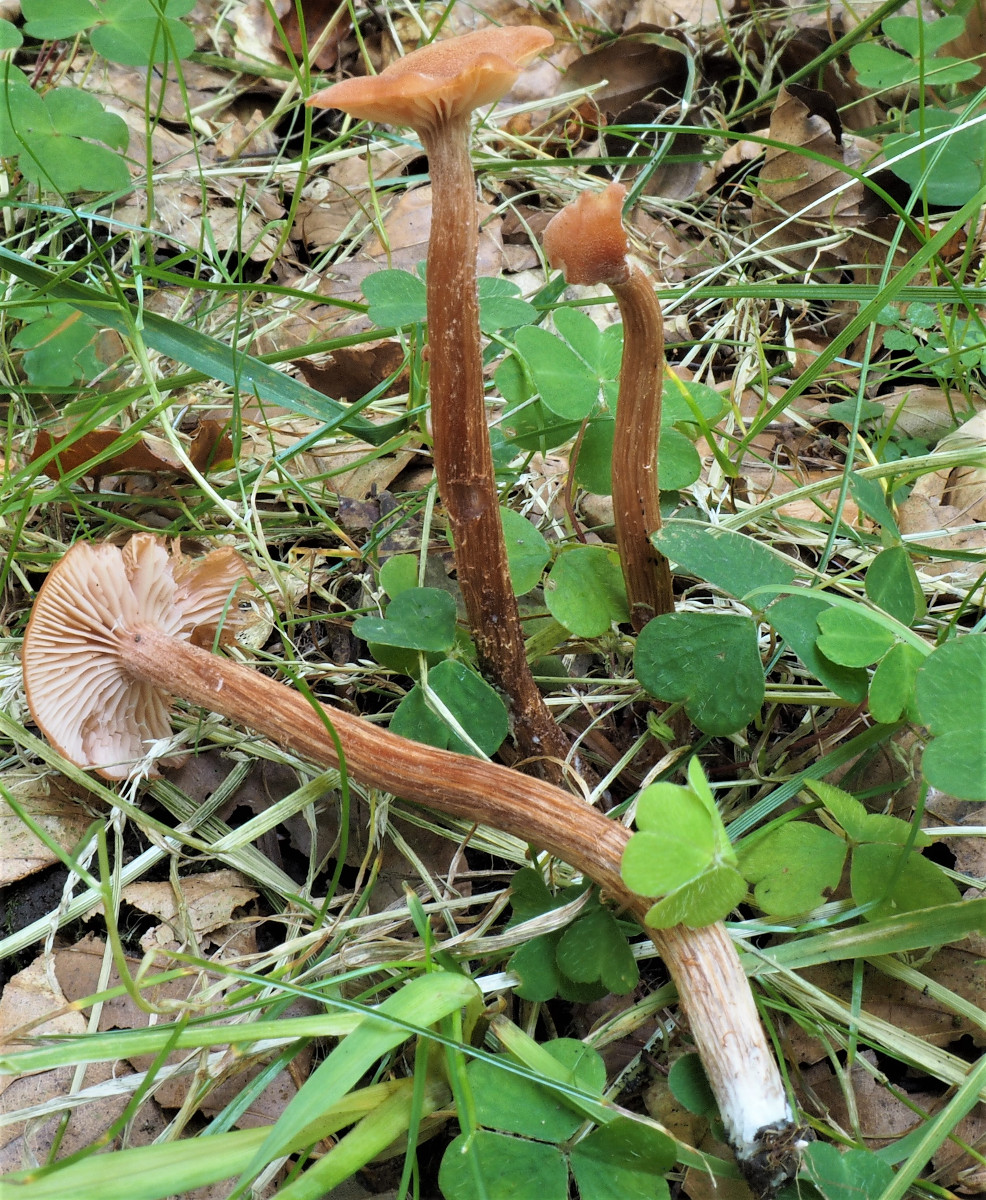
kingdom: Fungi
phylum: Basidiomycota
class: Agaricomycetes
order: Agaricales
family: Hydnangiaceae
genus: Laccaria
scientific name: Laccaria proxima
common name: stor ametysthat
